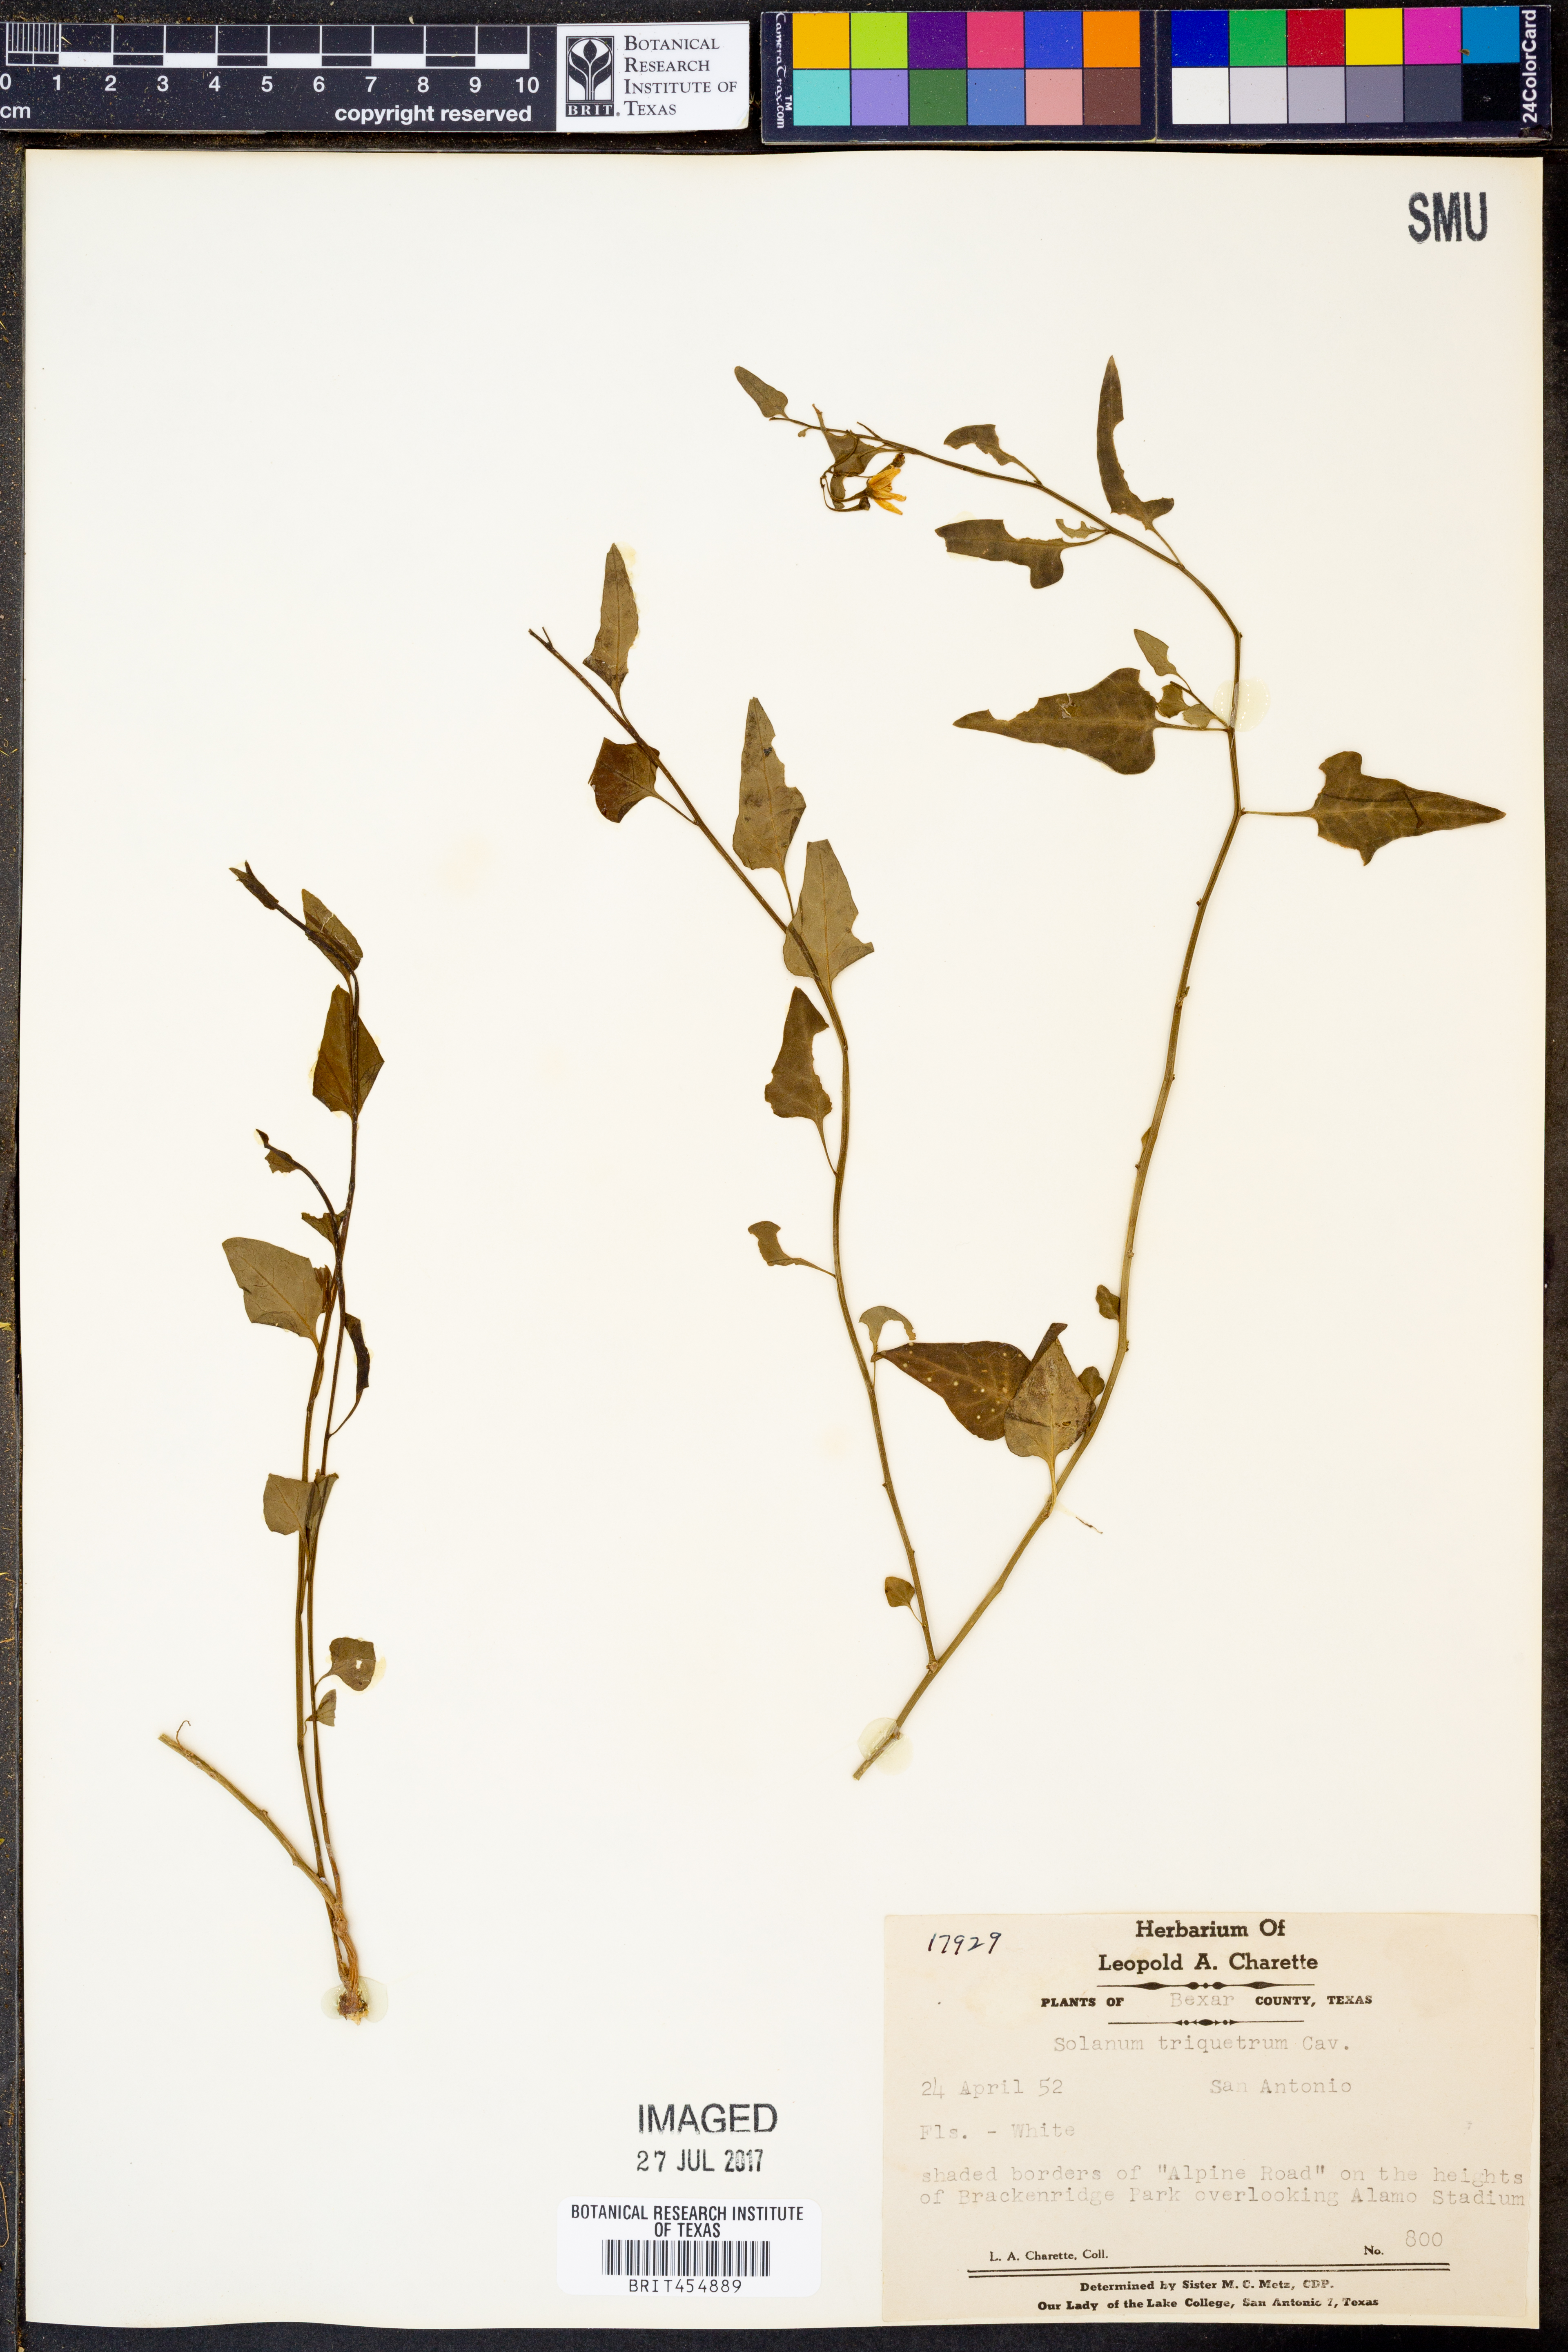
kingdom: Plantae
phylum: Tracheophyta
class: Magnoliopsida
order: Solanales
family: Solanaceae
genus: Solanum
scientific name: Solanum triquetrum
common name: Texas nightshade
